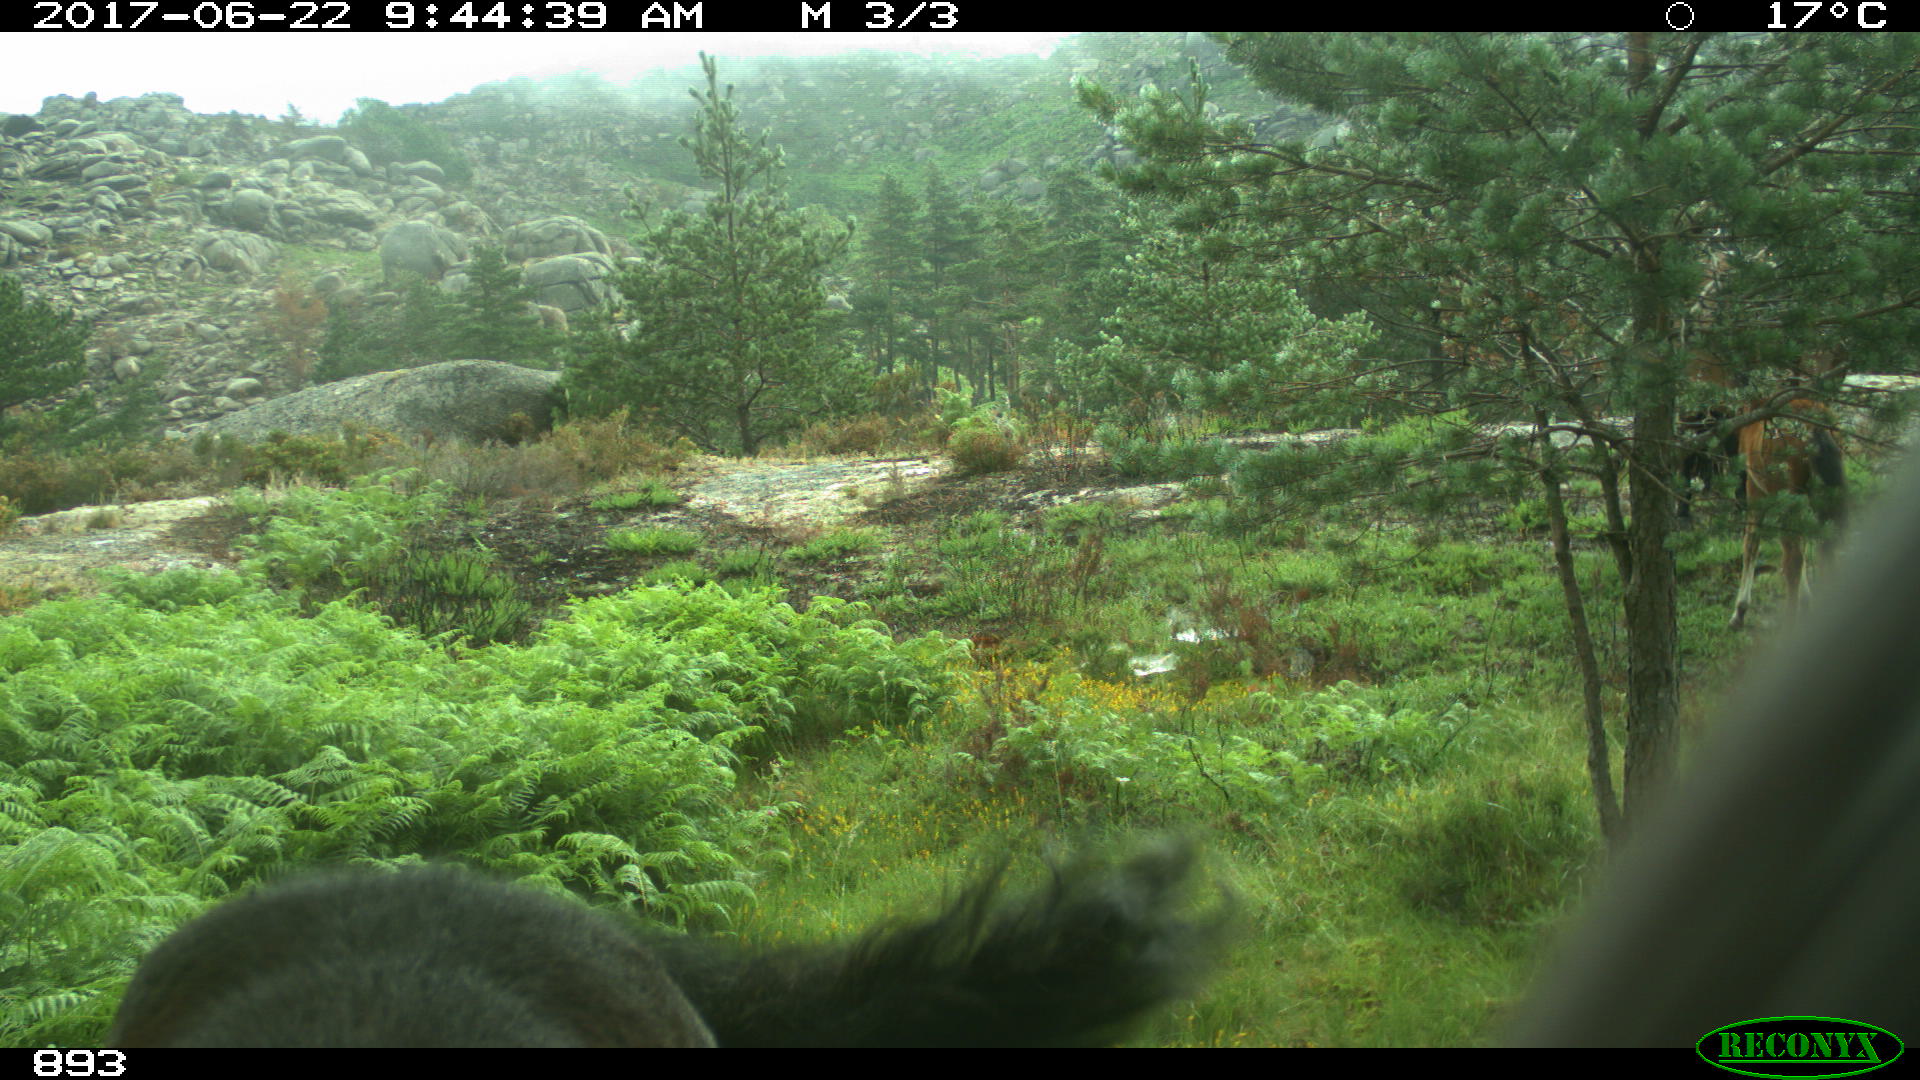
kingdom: Animalia
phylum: Chordata
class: Mammalia
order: Perissodactyla
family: Equidae
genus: Equus
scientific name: Equus caballus
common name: Horse
